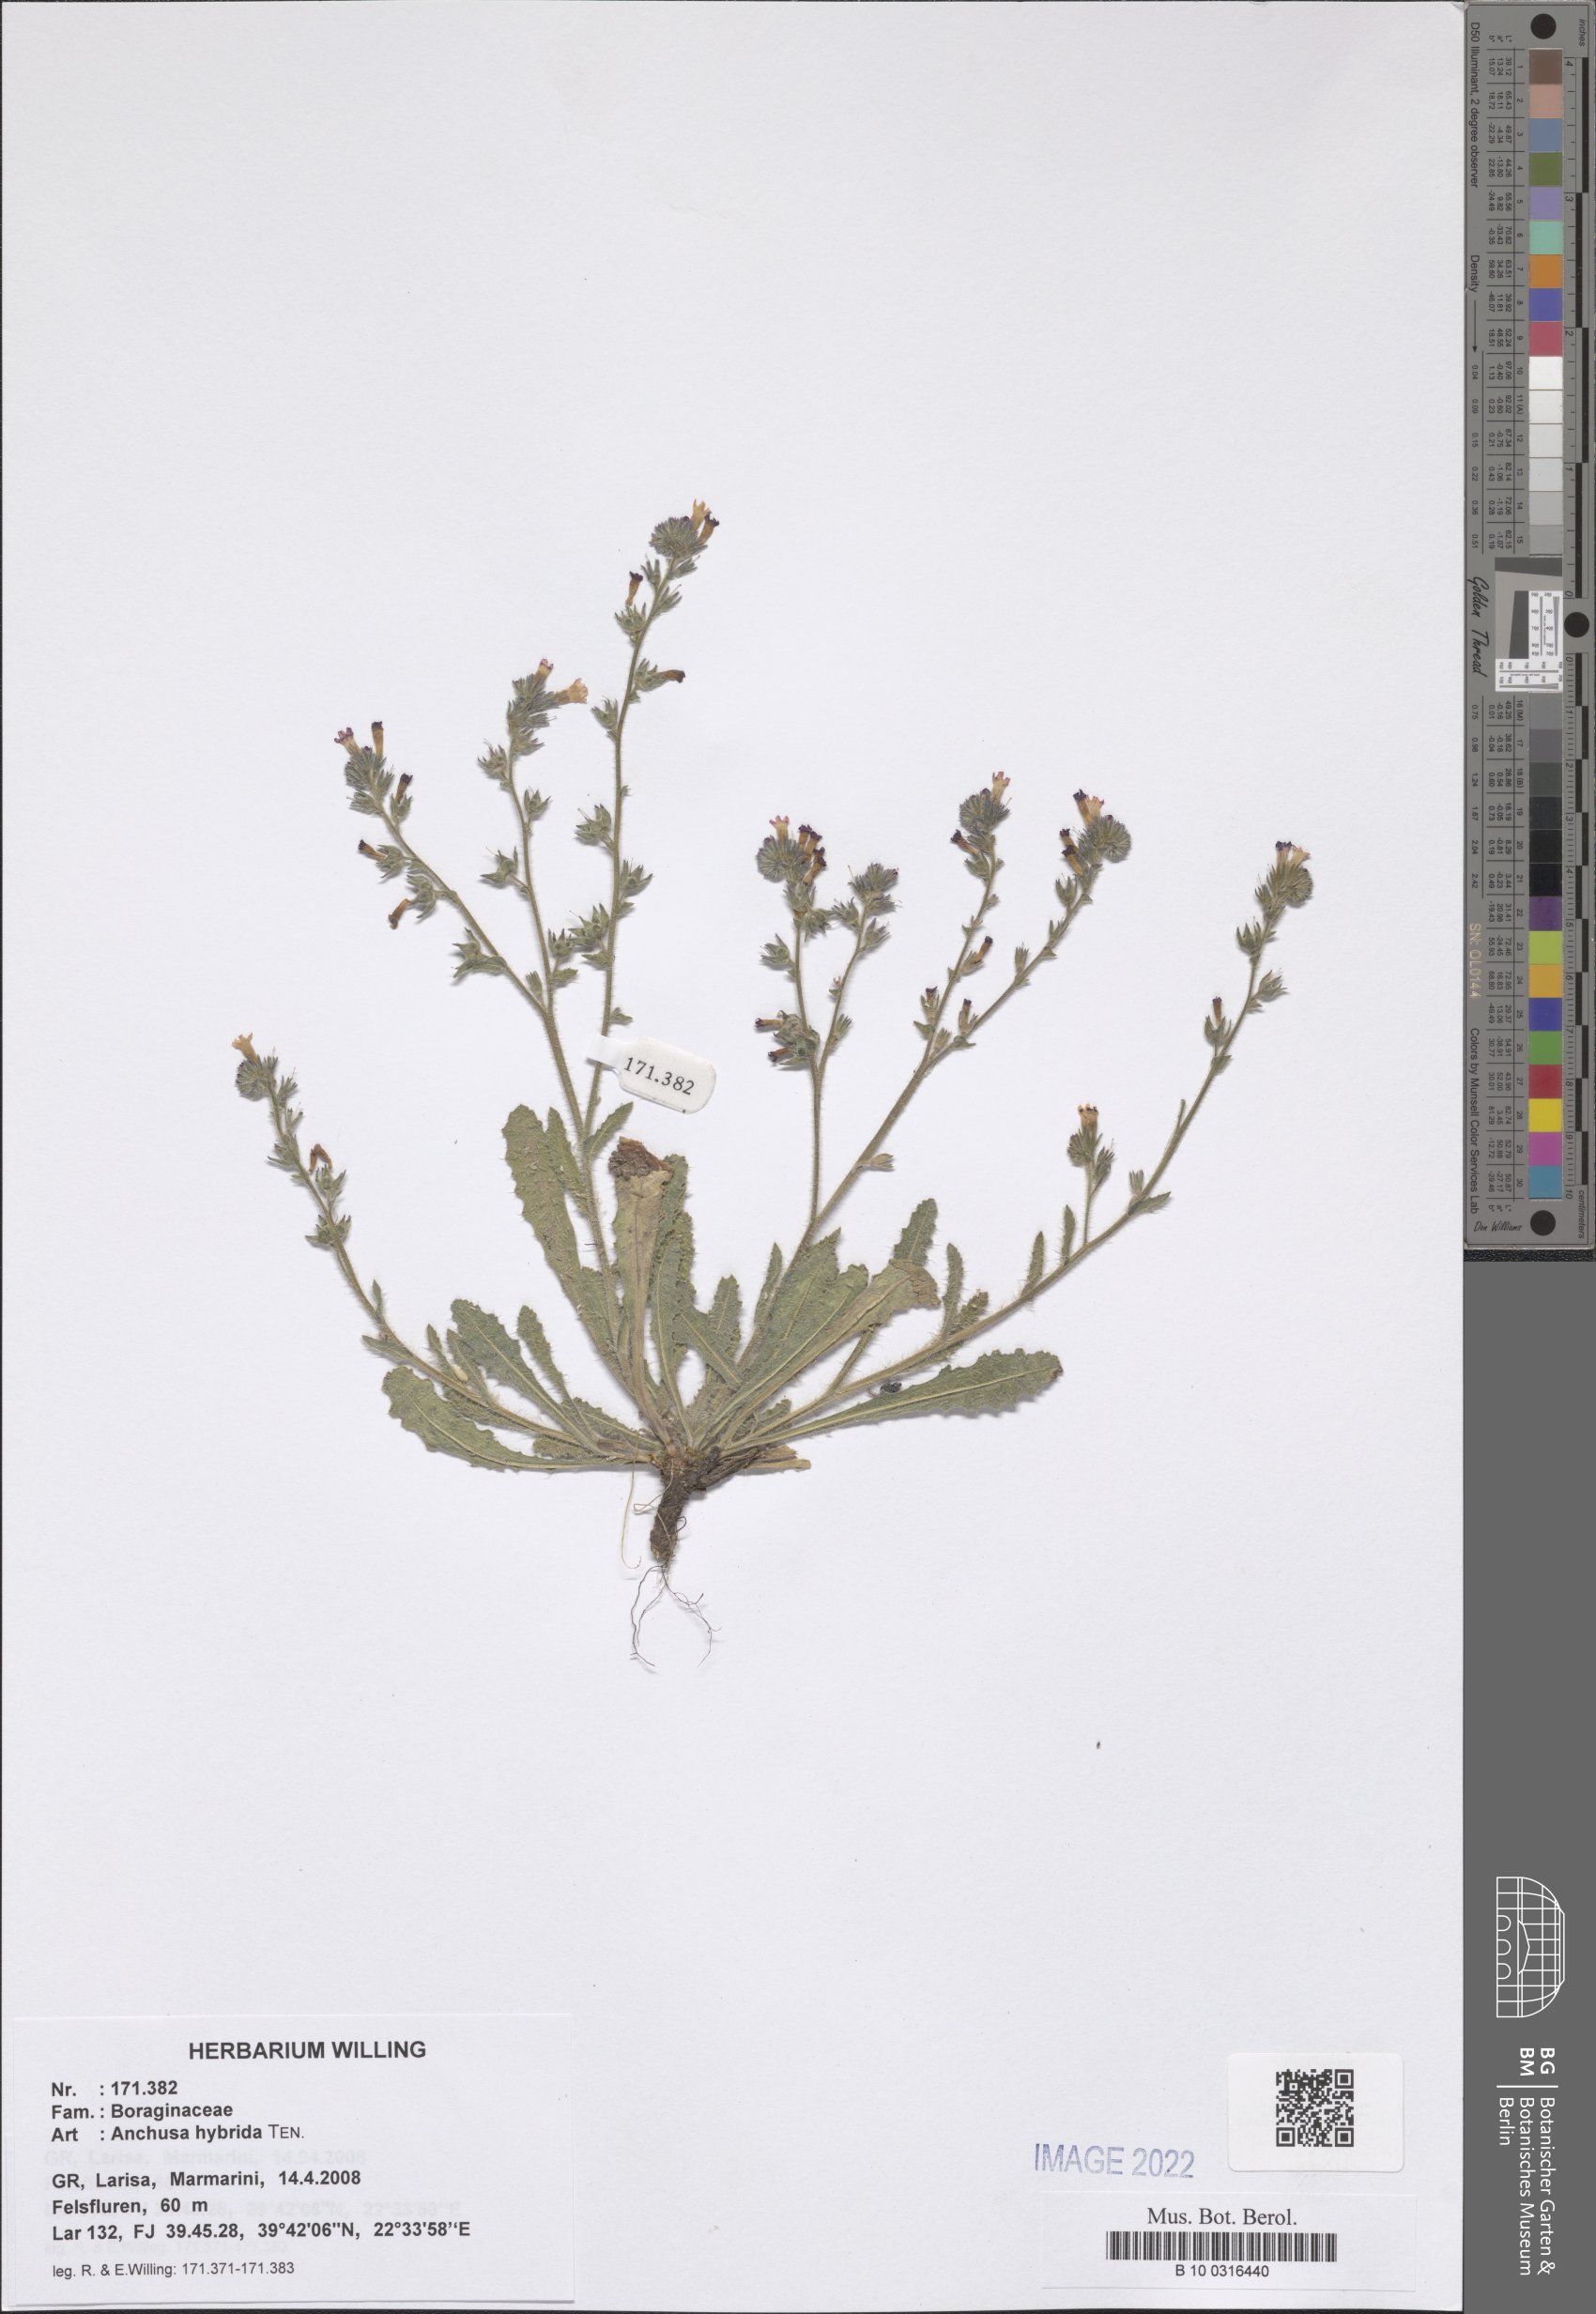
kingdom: Plantae
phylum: Tracheophyta
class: Magnoliopsida
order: Boraginales
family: Boraginaceae
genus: Anchusa
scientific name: Anchusa hybrida
